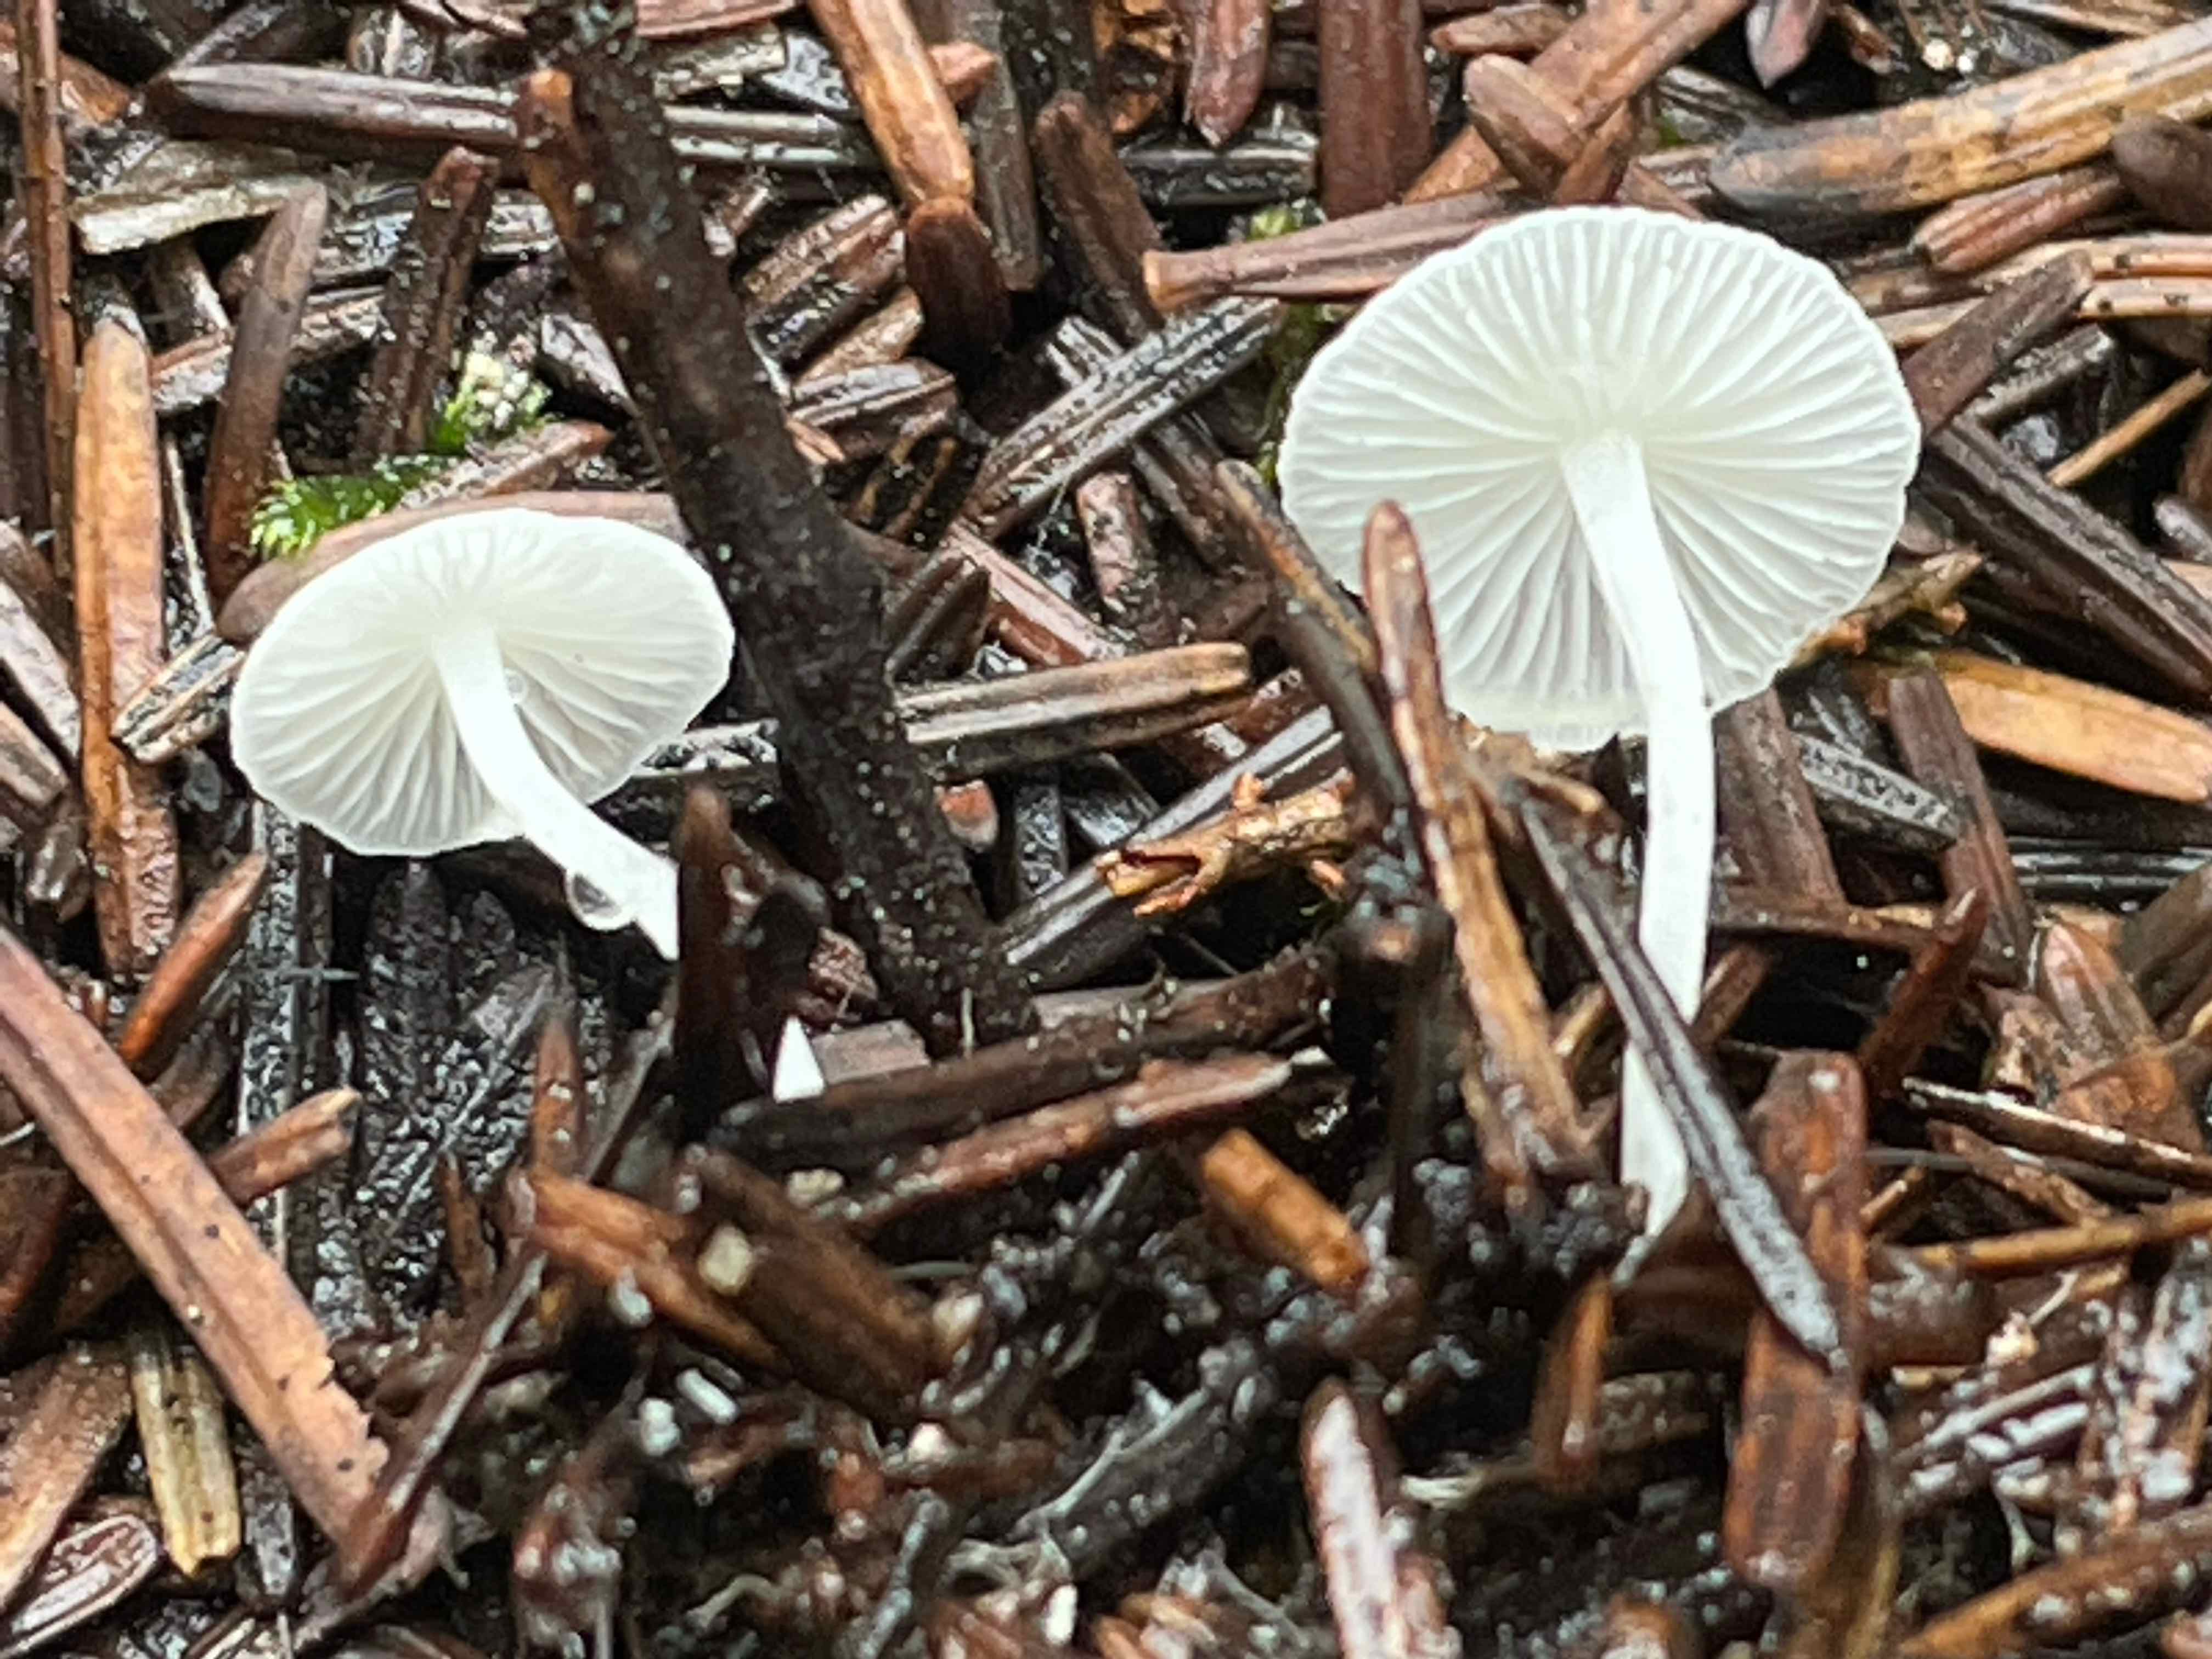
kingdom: Fungi
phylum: Basidiomycota
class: Agaricomycetes
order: Agaricales
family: Mycenaceae
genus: Hemimycena
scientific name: Hemimycena lactea
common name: mælkehvid huesvamp
